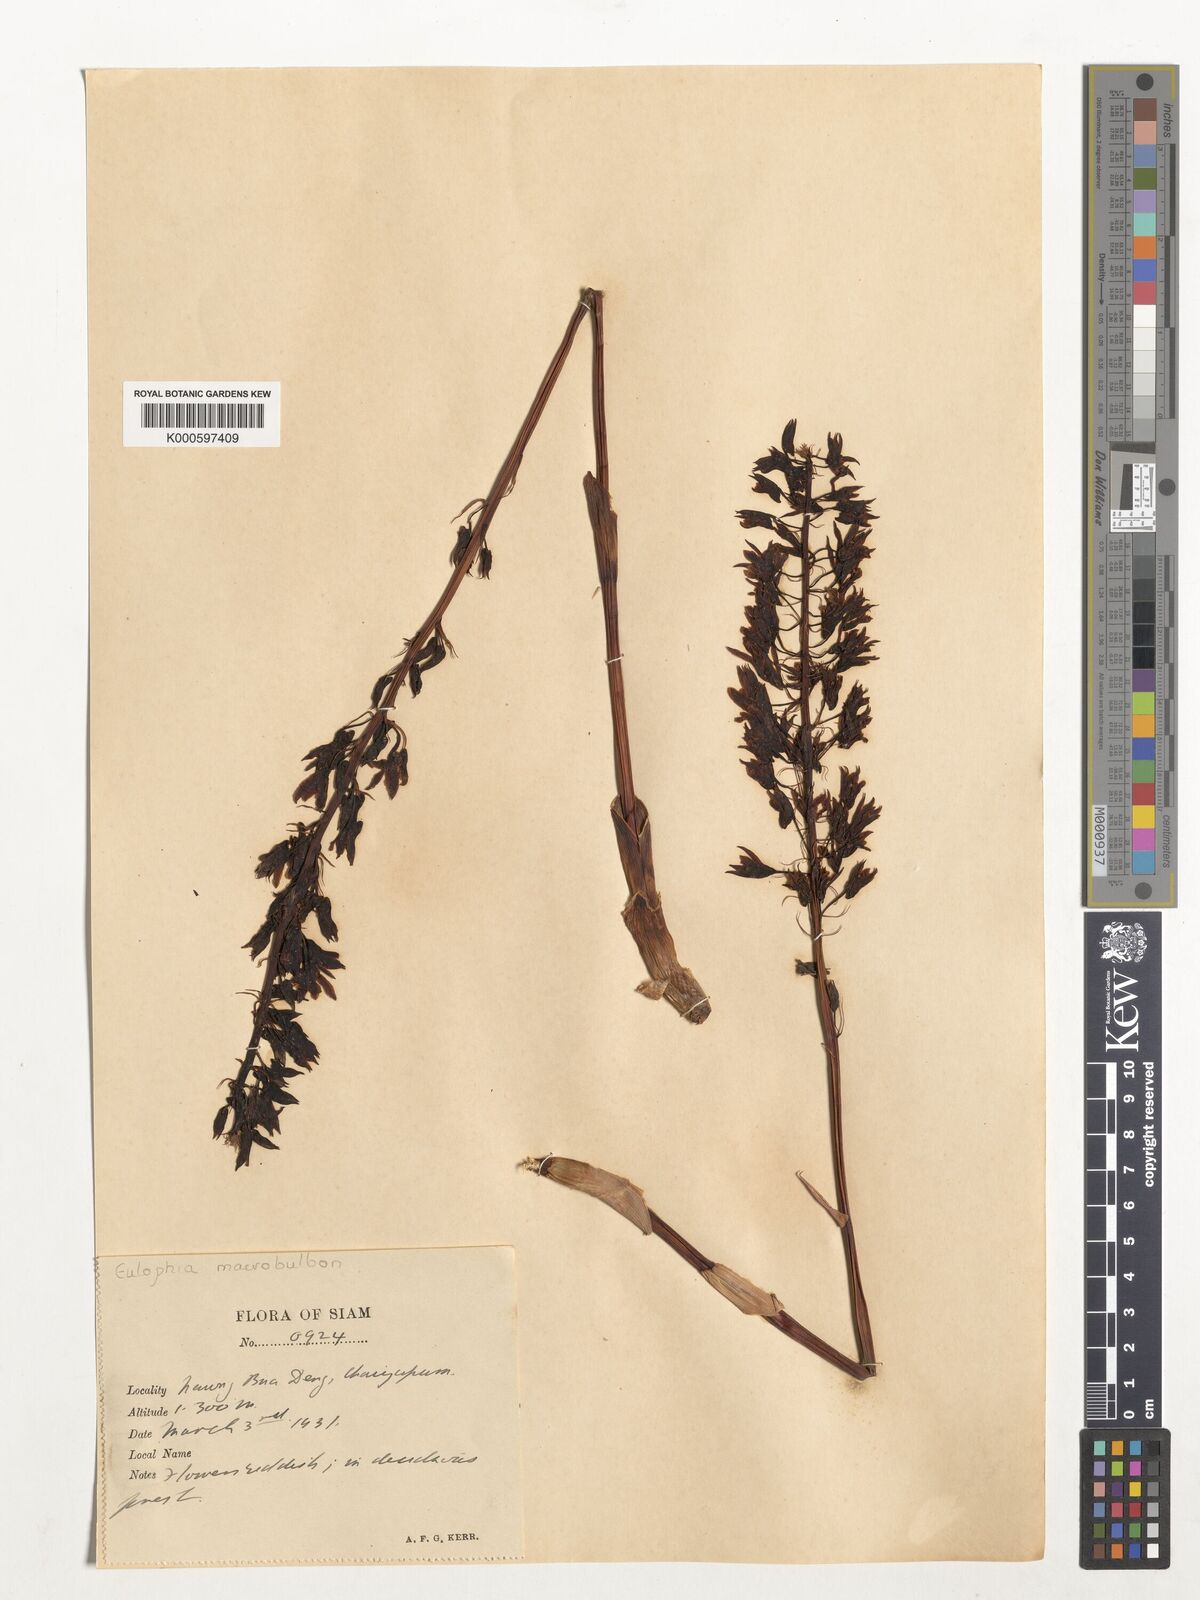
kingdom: Plantae
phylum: Tracheophyta
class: Liliopsida
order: Asparagales
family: Orchidaceae
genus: Eulophia
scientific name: Eulophia macrobulbon
